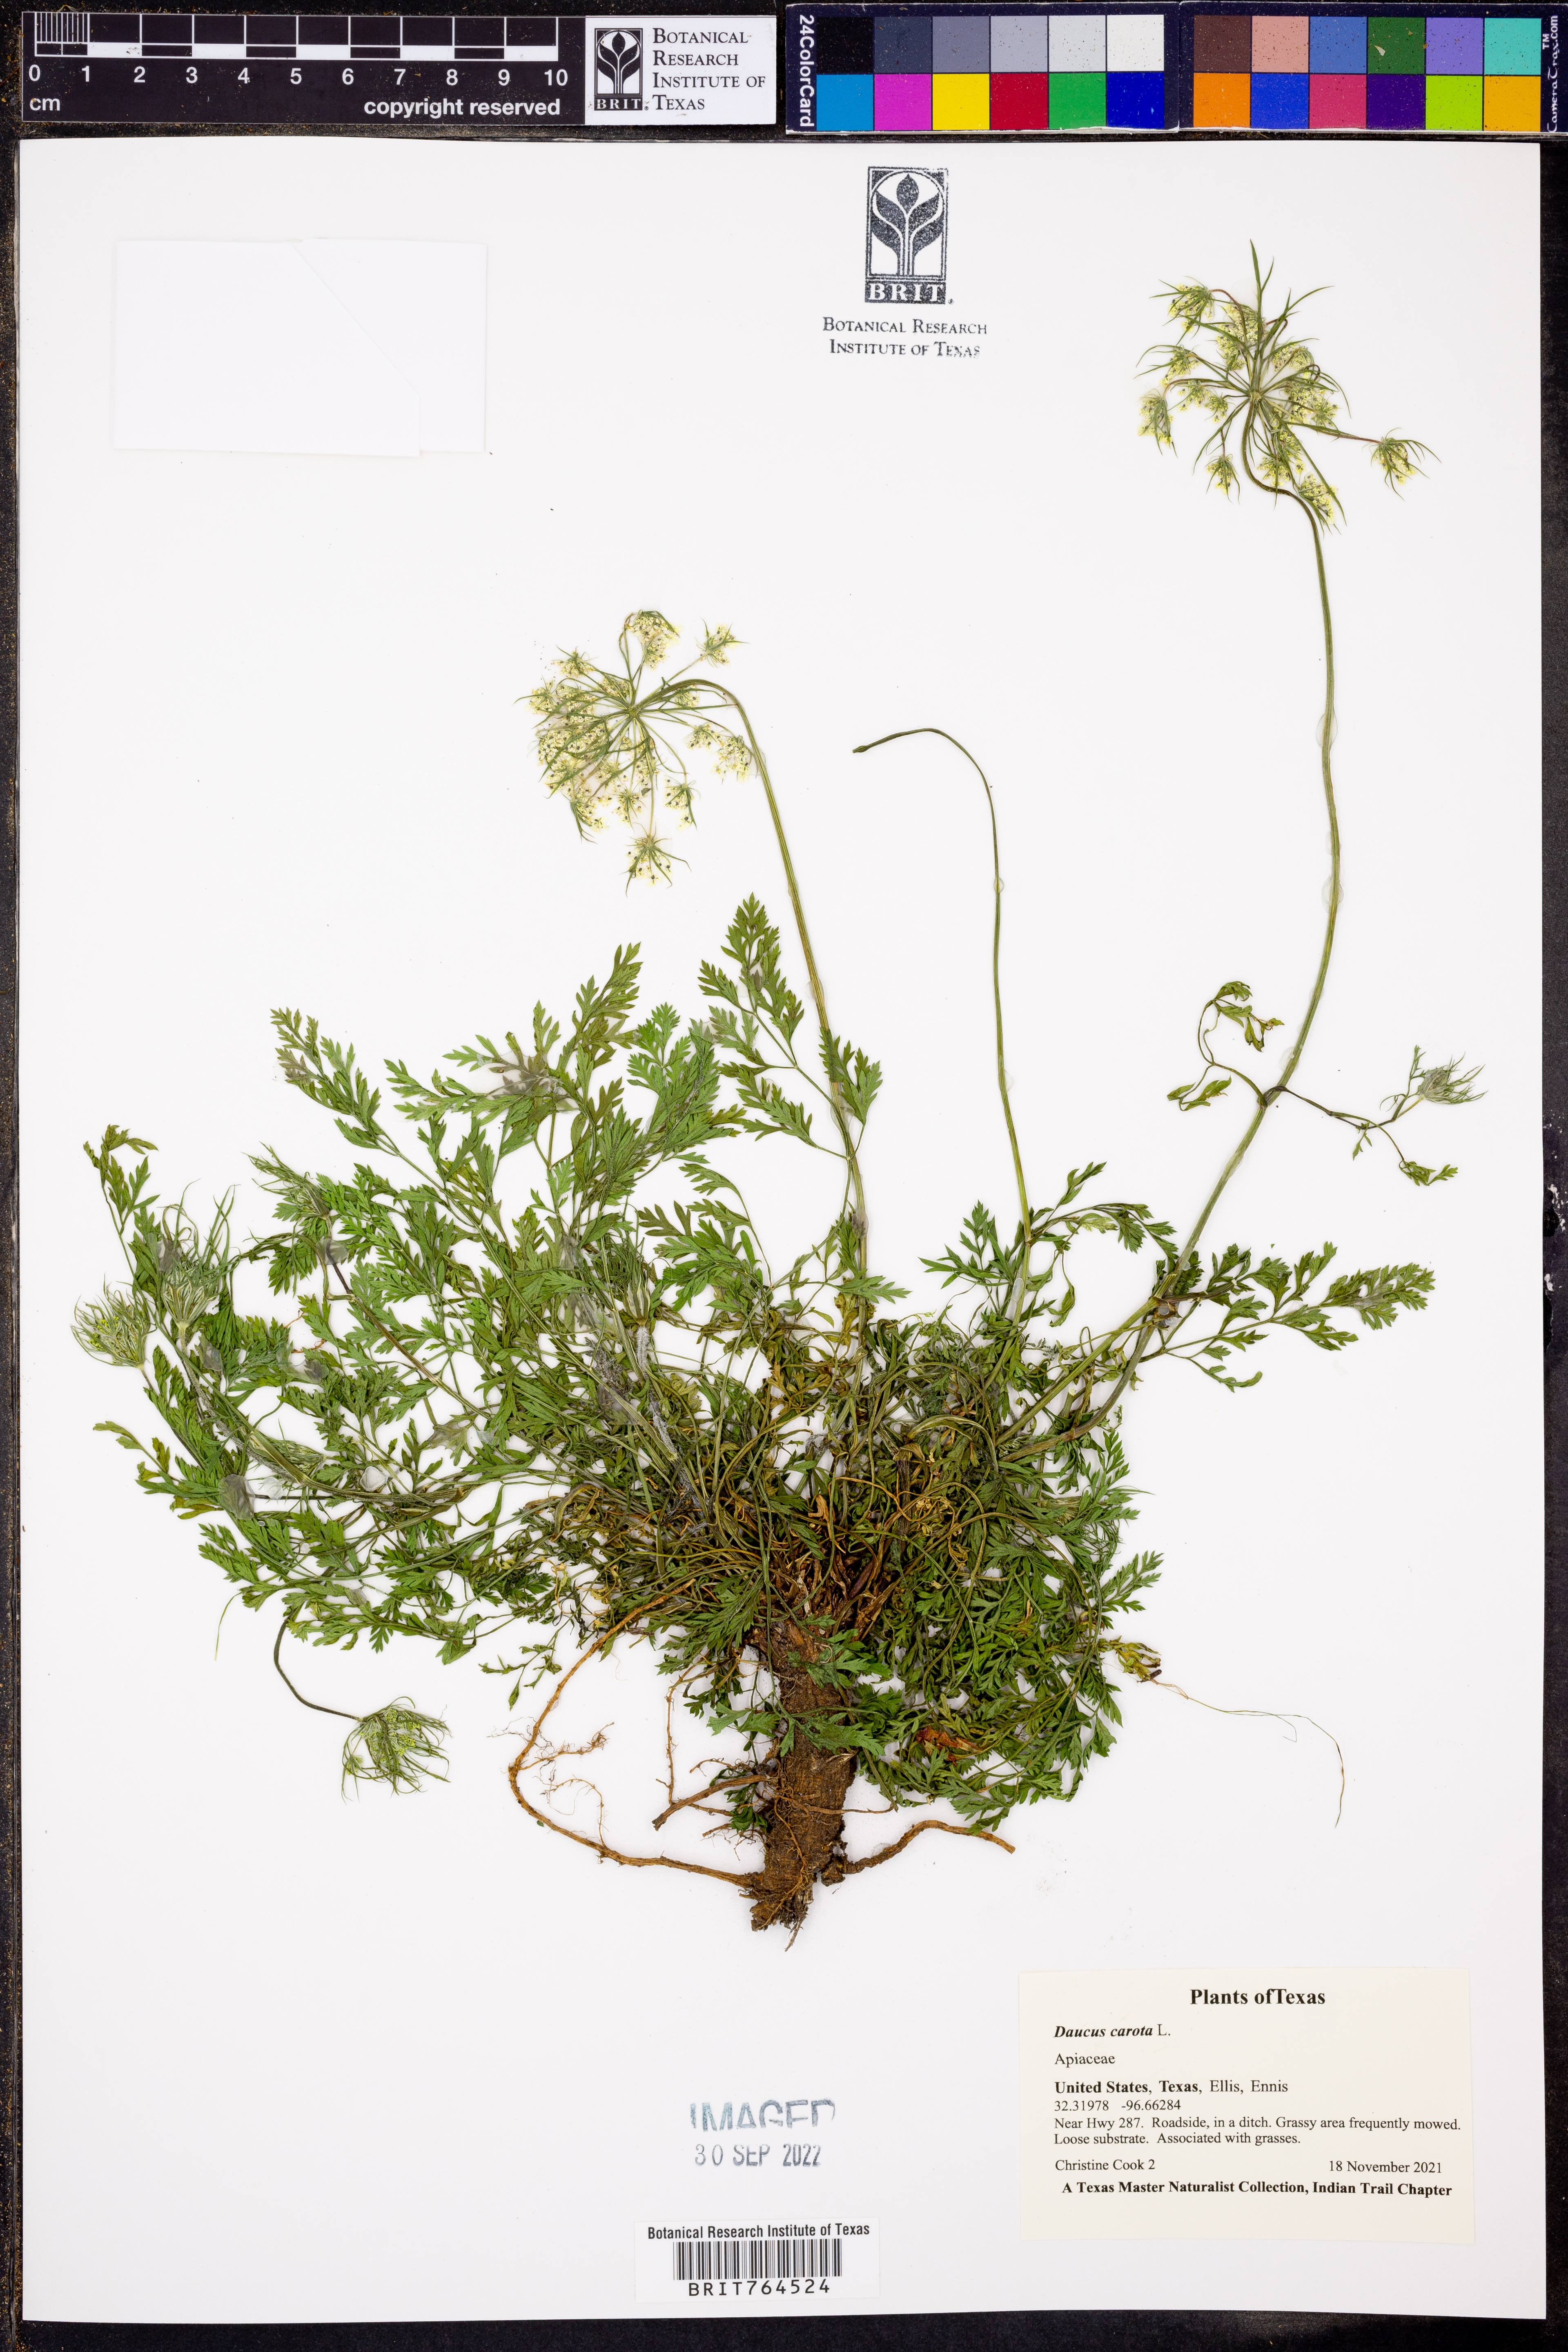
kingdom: Plantae
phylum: Tracheophyta
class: Magnoliopsida
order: Apiales
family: Apiaceae
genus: Daucus
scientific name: Daucus carota
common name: Wild carrot
